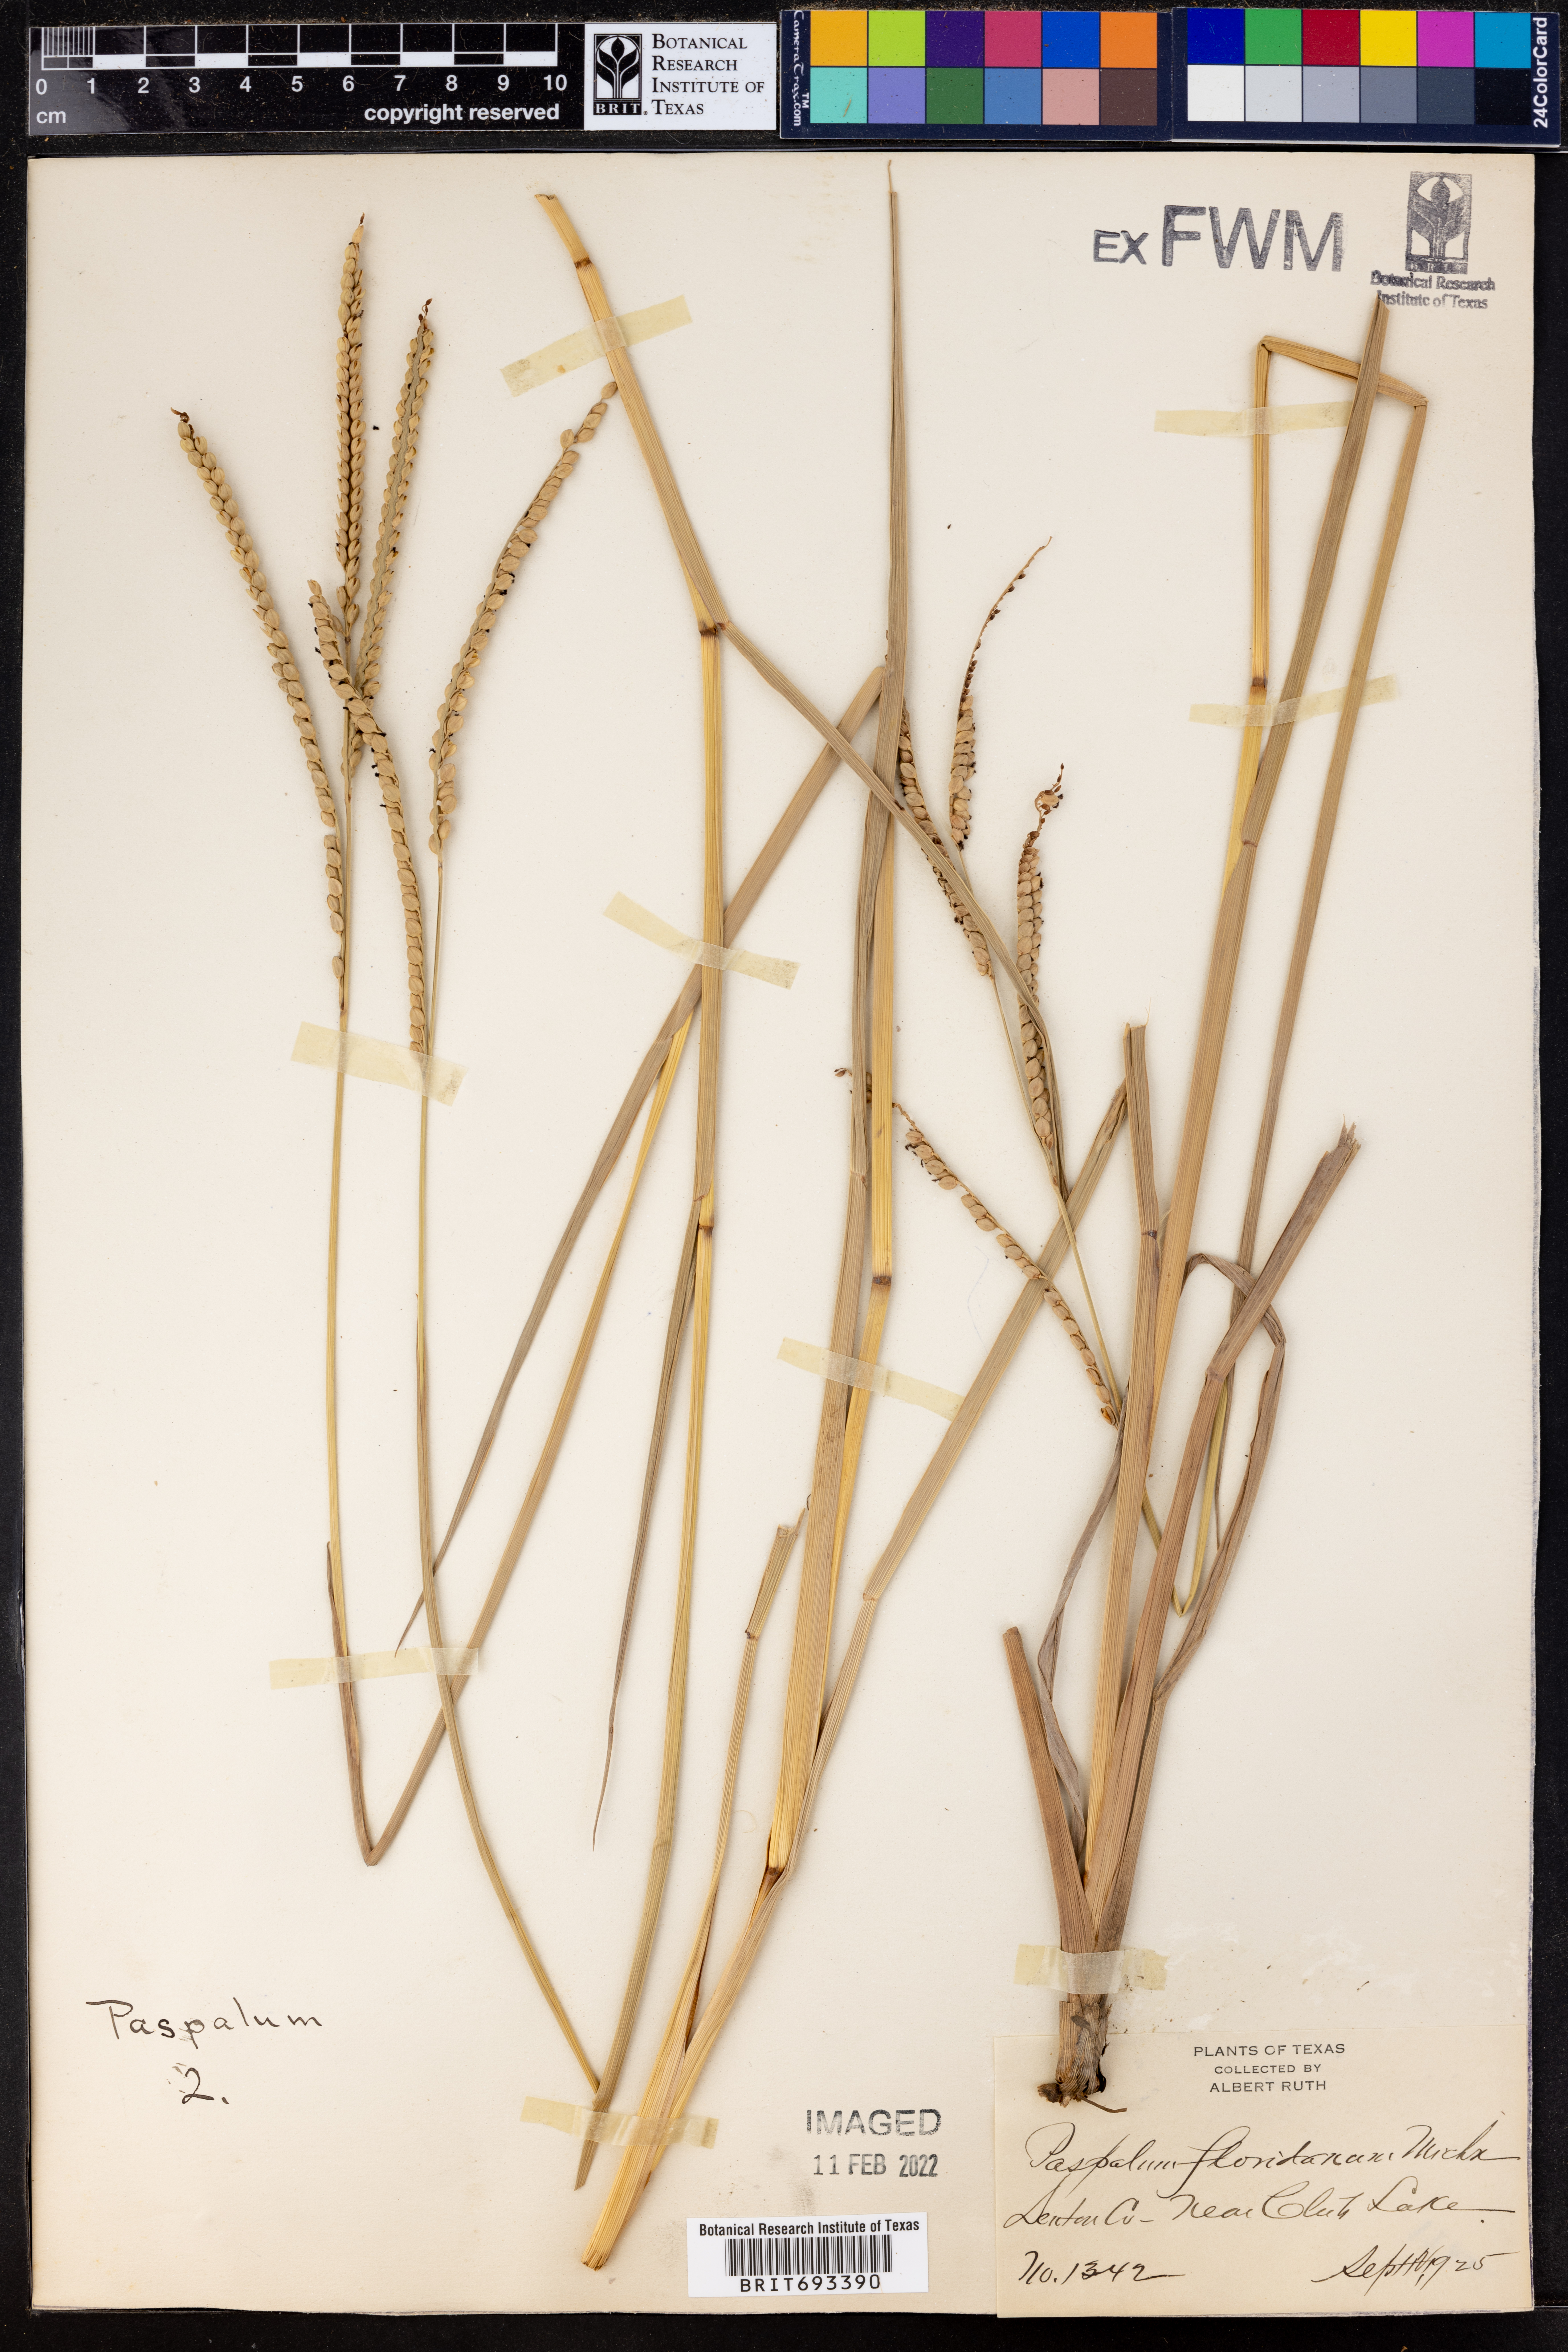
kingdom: Plantae
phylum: Tracheophyta
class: Liliopsida
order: Poales
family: Poaceae
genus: Paspalum
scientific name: Paspalum laxum
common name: Coconut paspalum
